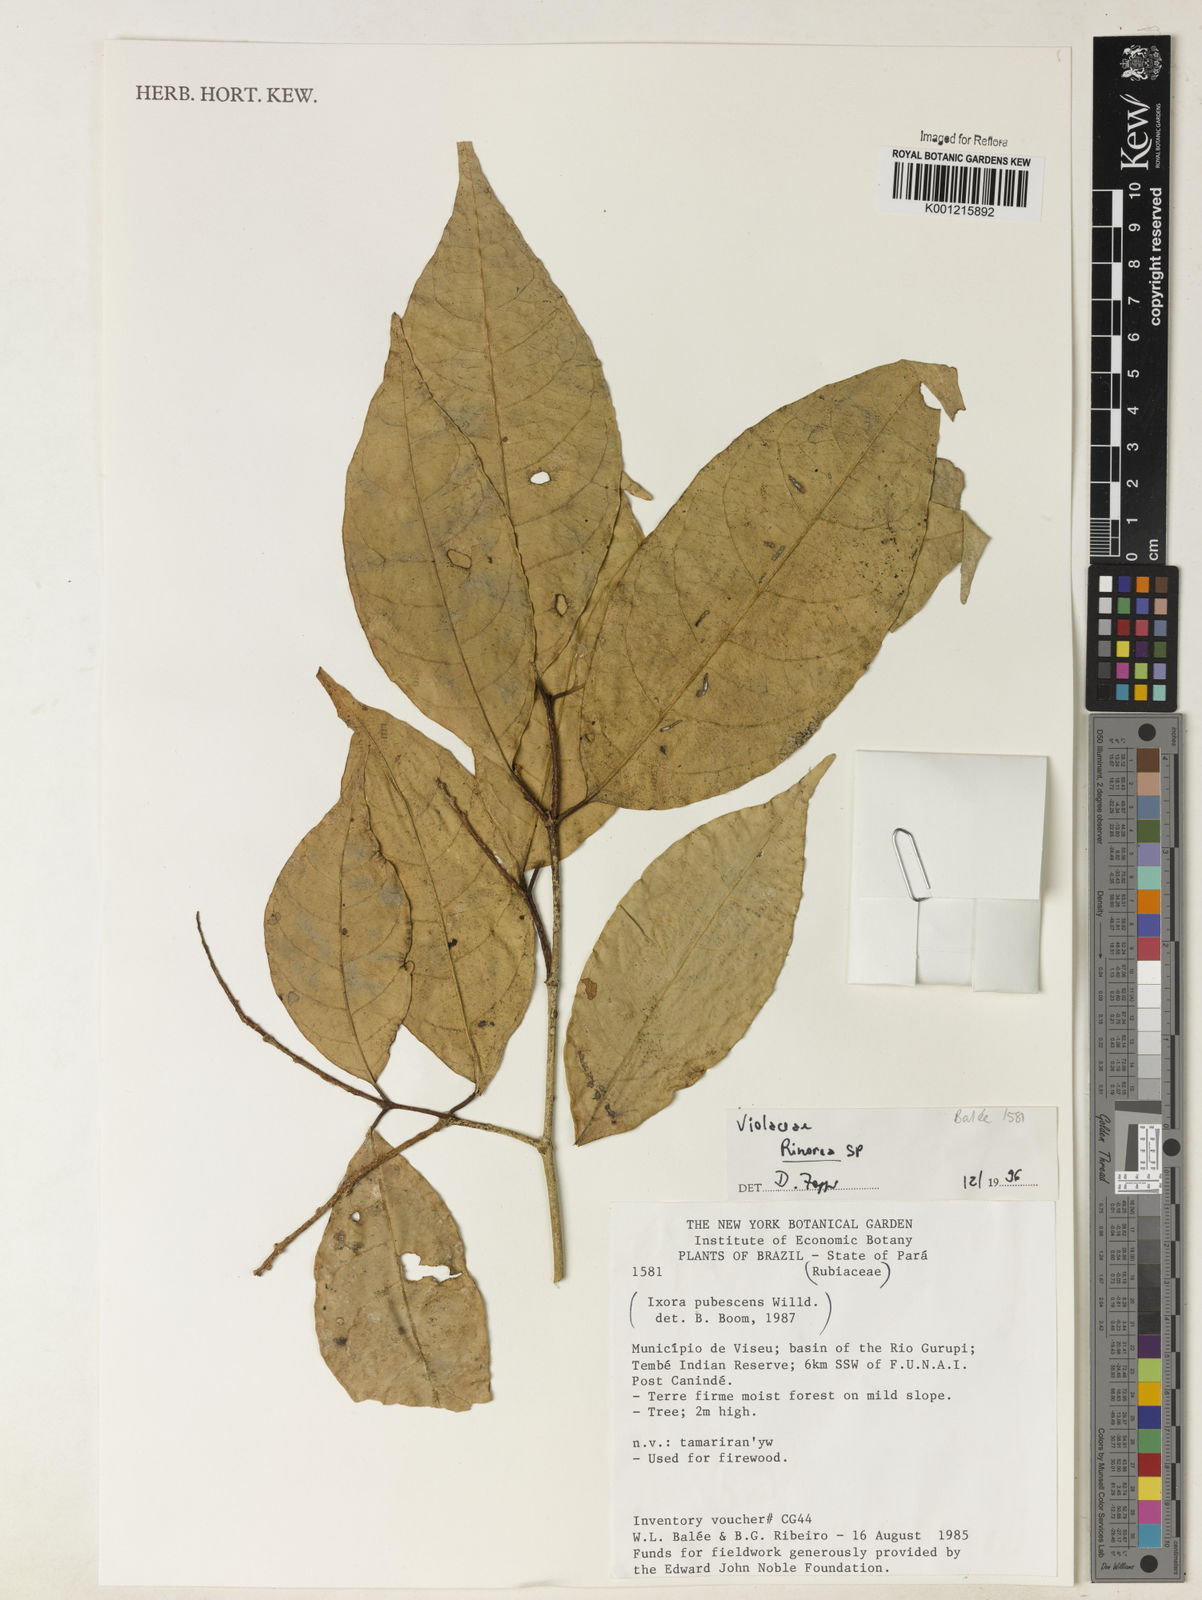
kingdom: Plantae
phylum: Tracheophyta
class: Magnoliopsida
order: Malpighiales
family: Violaceae
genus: Rinorea
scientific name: Rinorea
